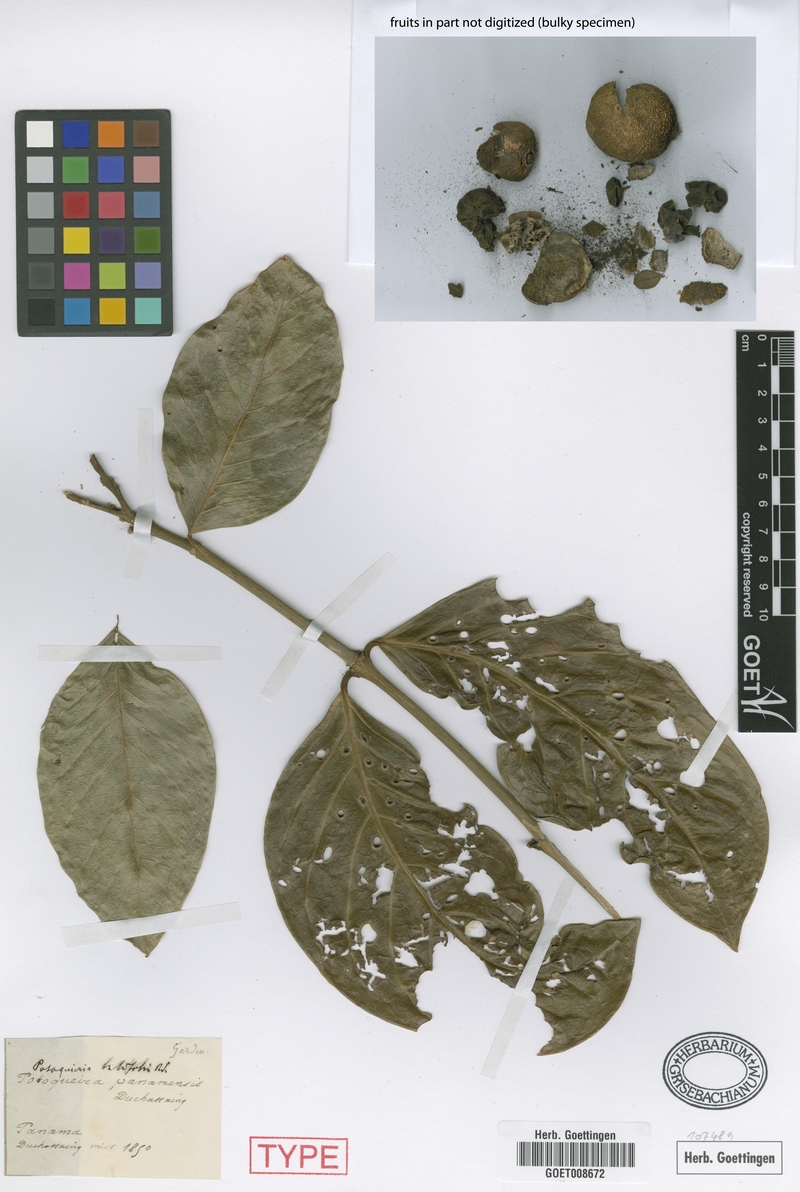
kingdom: Plantae
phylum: Tracheophyta
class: Magnoliopsida
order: Gentianales
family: Rubiaceae
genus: Posoqueria
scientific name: Posoqueria latifolia
